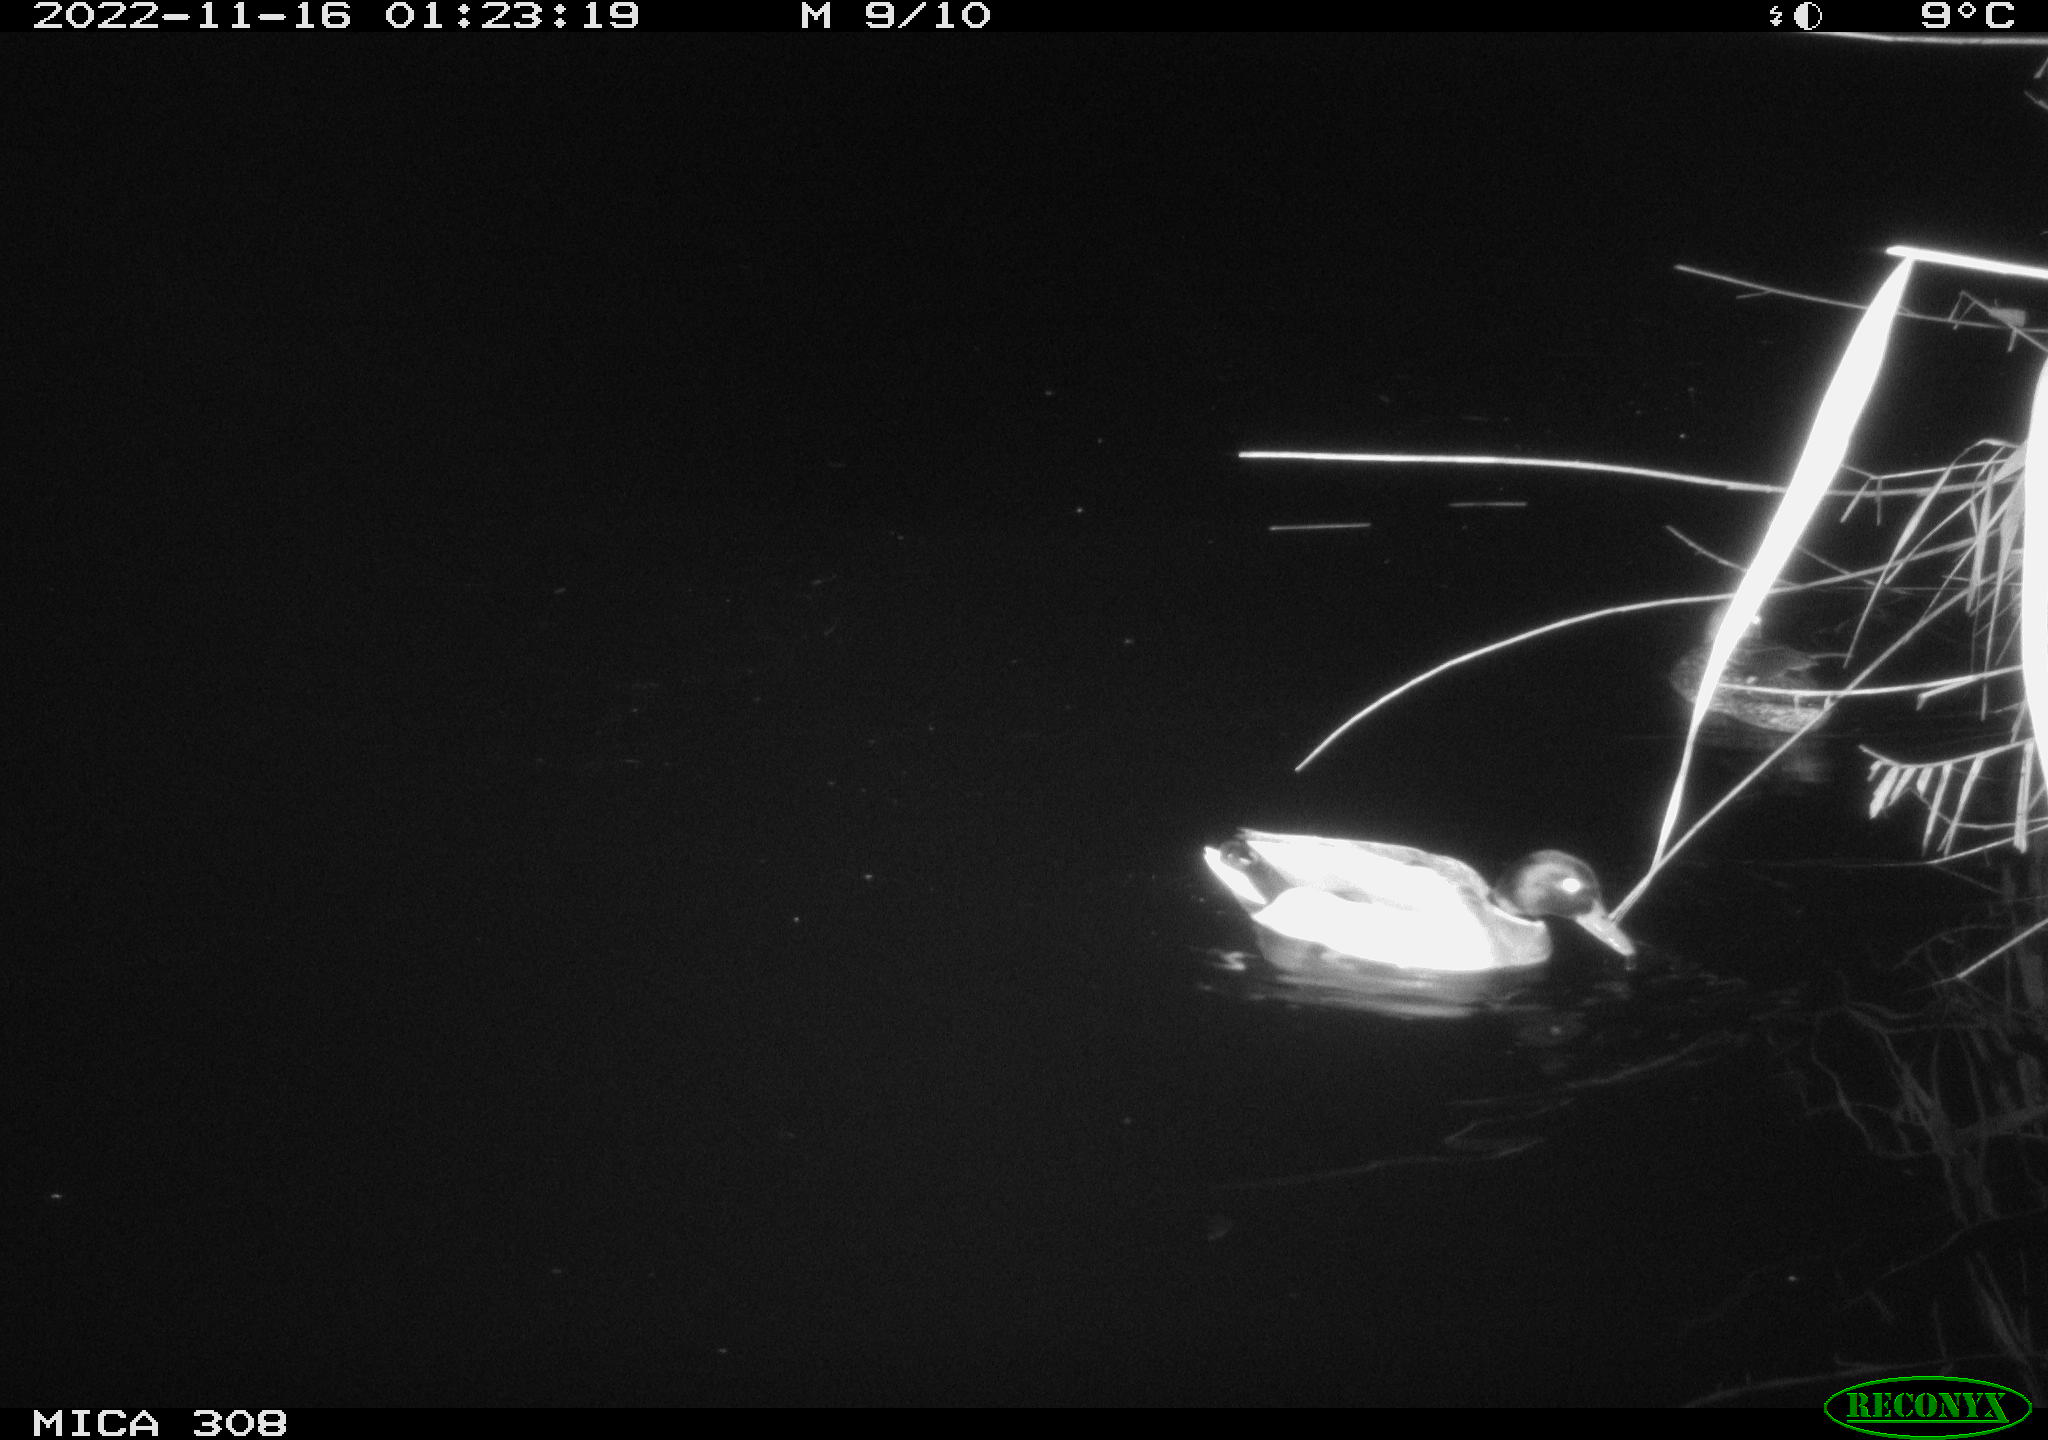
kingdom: Animalia
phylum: Chordata
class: Aves
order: Anseriformes
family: Anatidae
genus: Anas
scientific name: Anas
